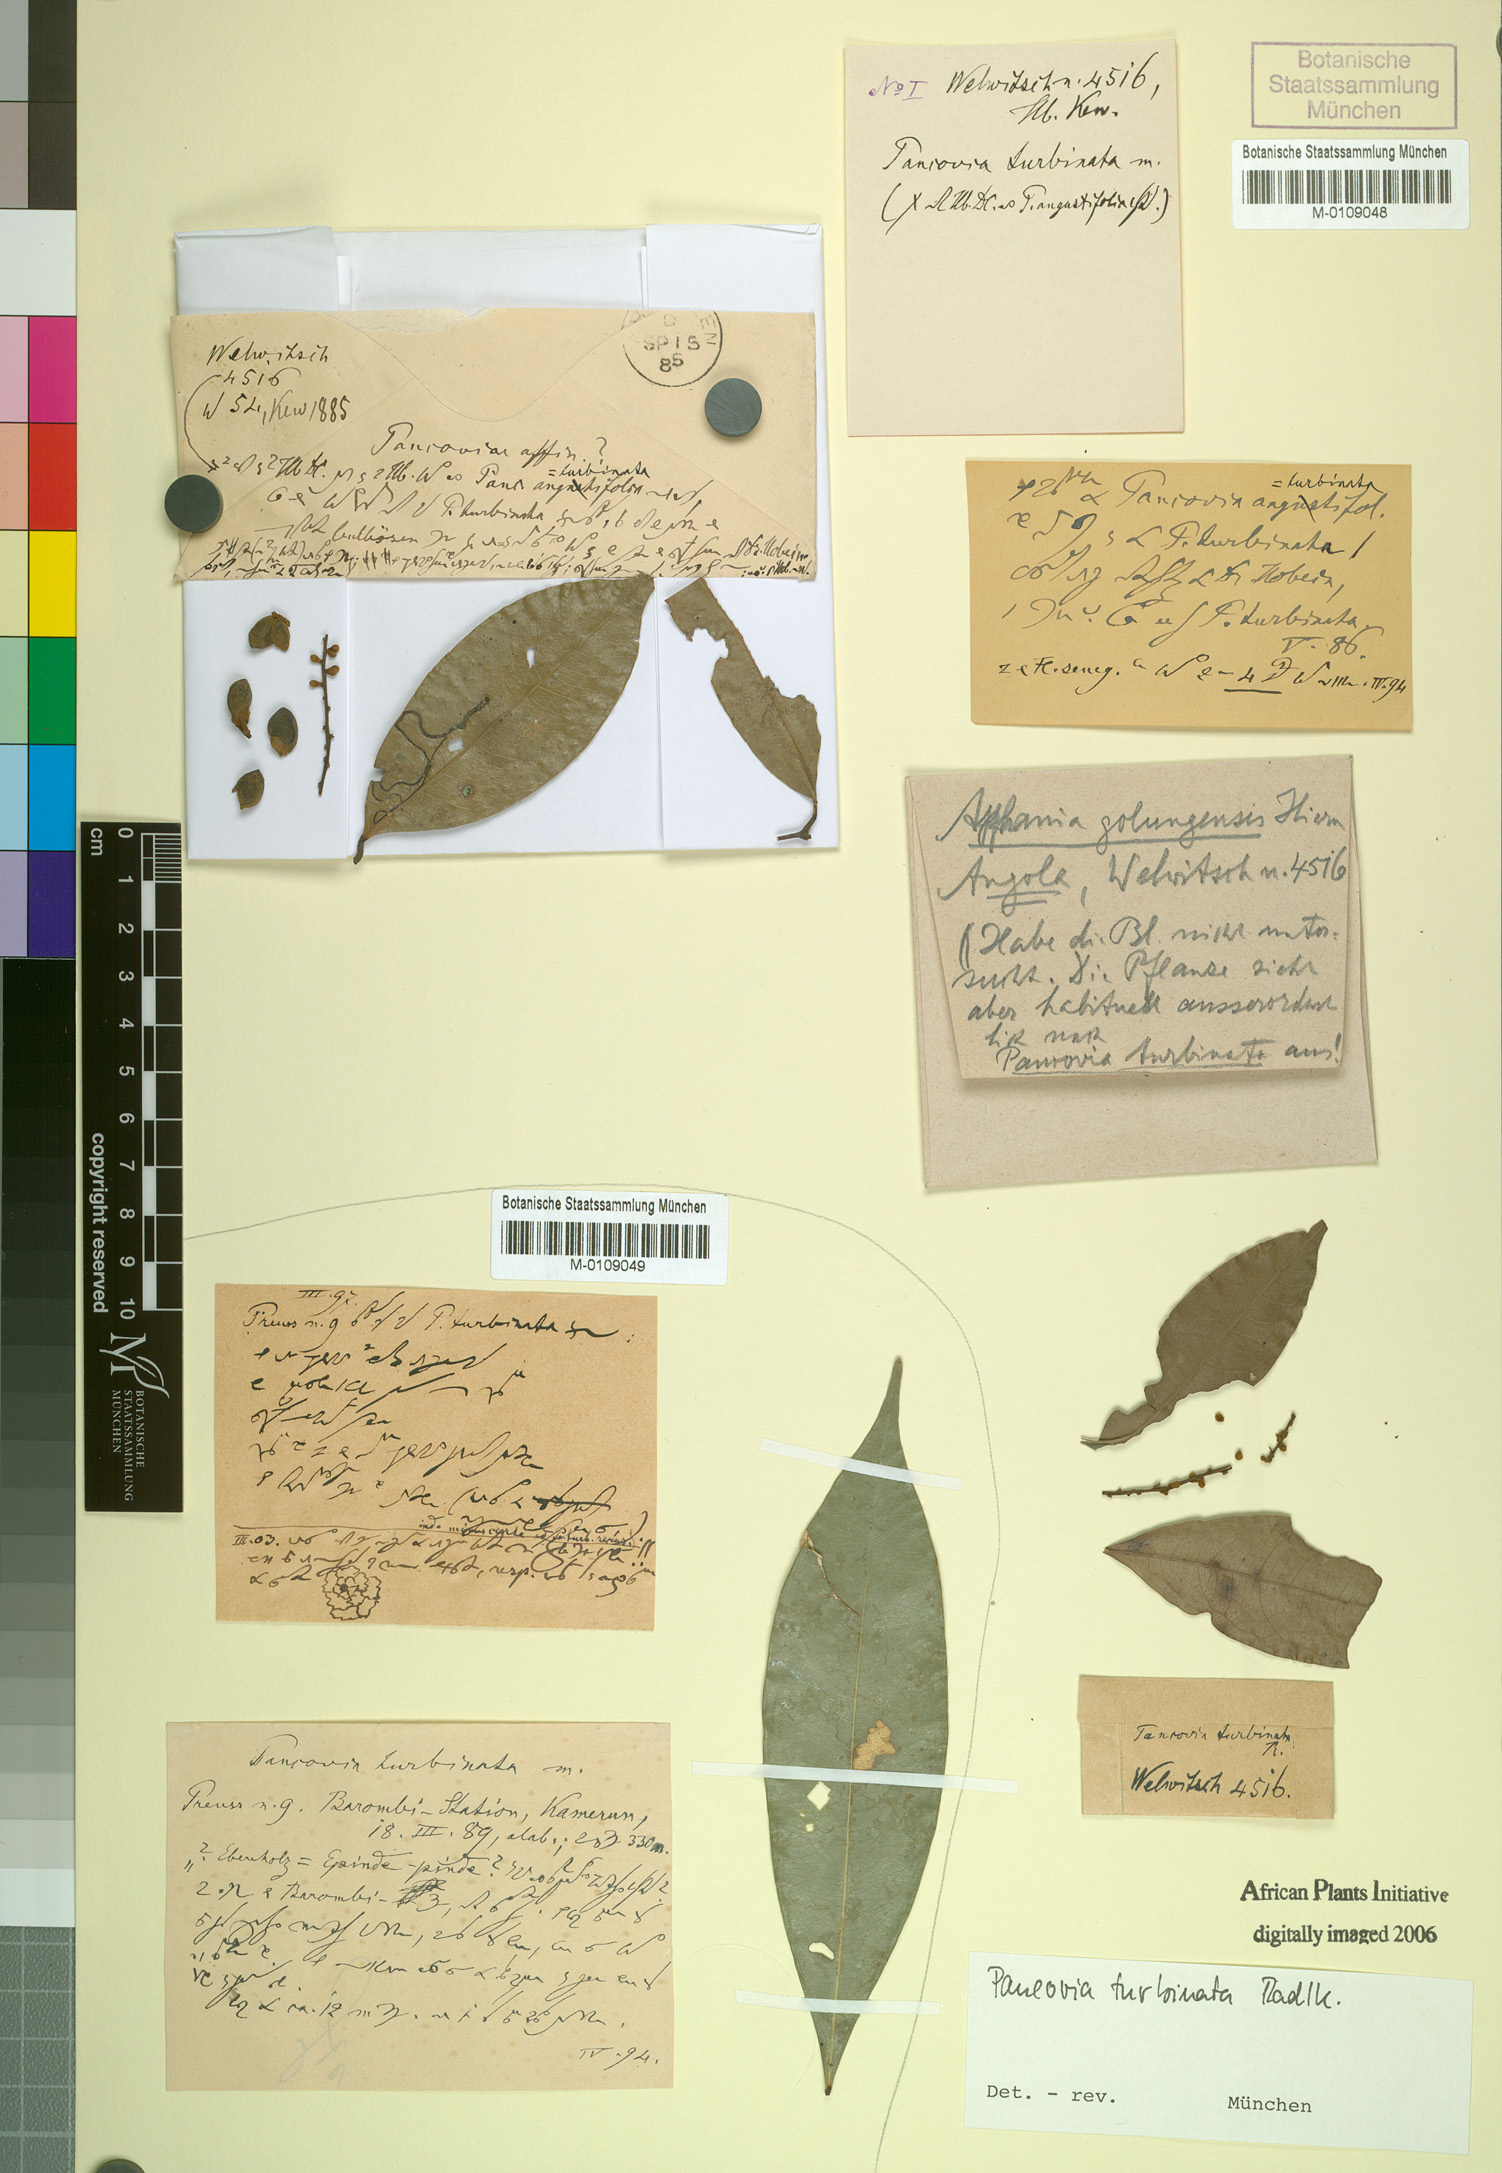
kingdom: Plantae
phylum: Tracheophyta
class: Magnoliopsida
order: Sapindales
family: Sapindaceae
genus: Pancovia
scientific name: Pancovia turbinata
